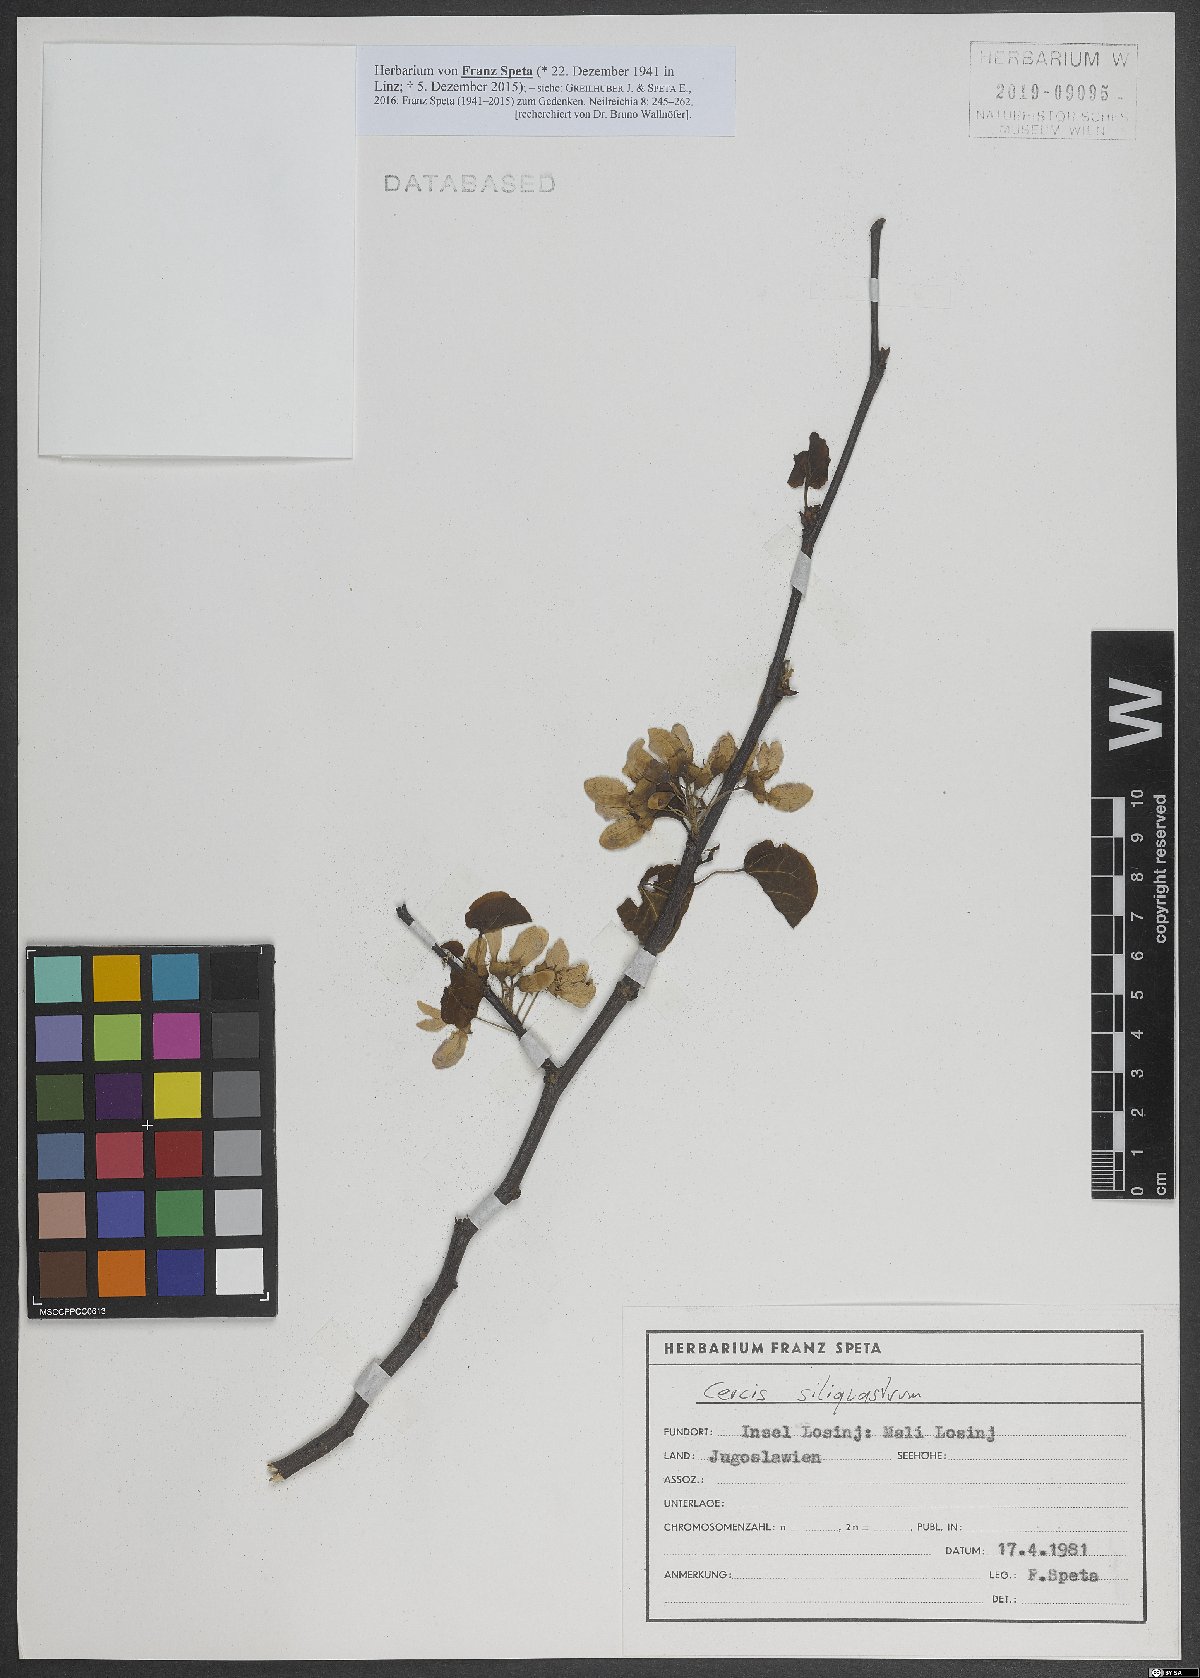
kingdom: Plantae
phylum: Tracheophyta
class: Magnoliopsida
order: Fabales
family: Fabaceae
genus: Cercis
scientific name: Cercis siliquastrum
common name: Judas tree
